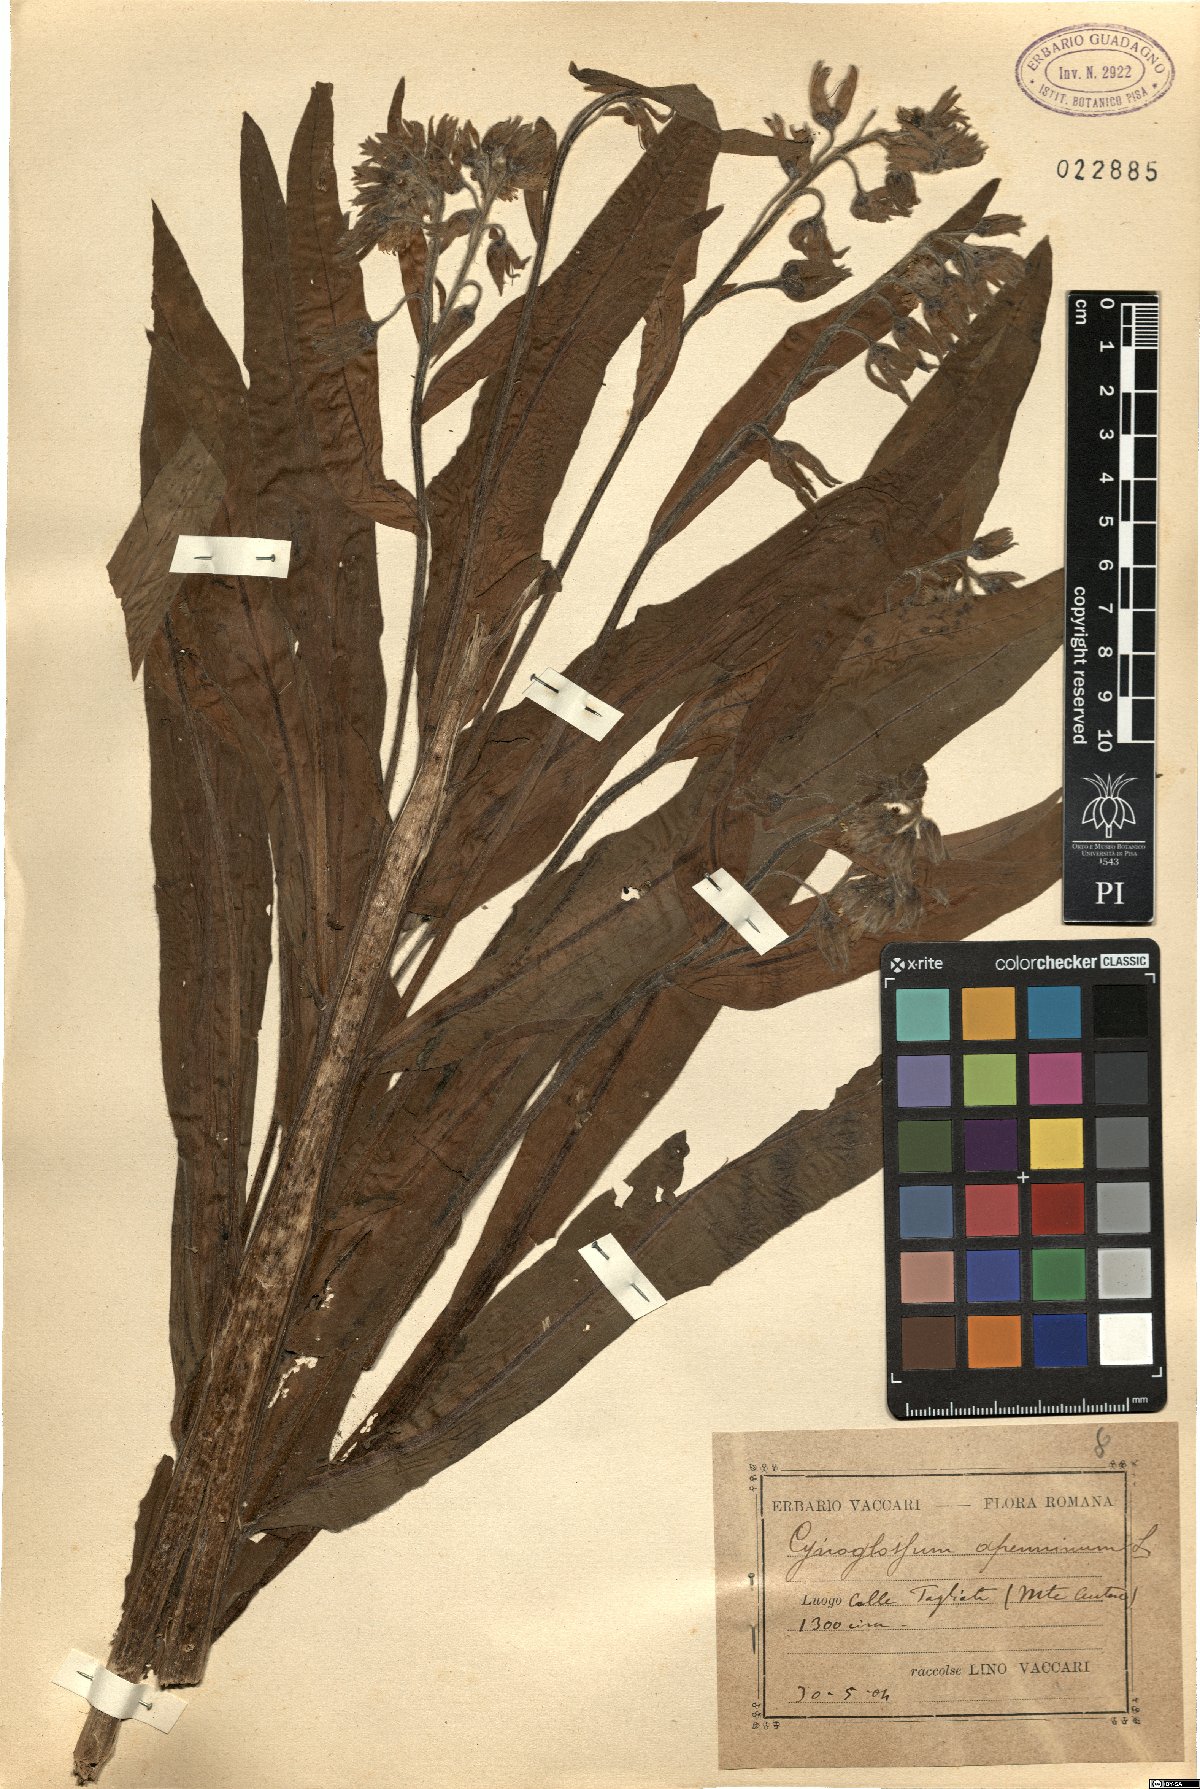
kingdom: Plantae
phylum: Tracheophyta
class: Magnoliopsida
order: Boraginales
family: Boraginaceae
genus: Solenanthus
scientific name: Solenanthus apenninus
